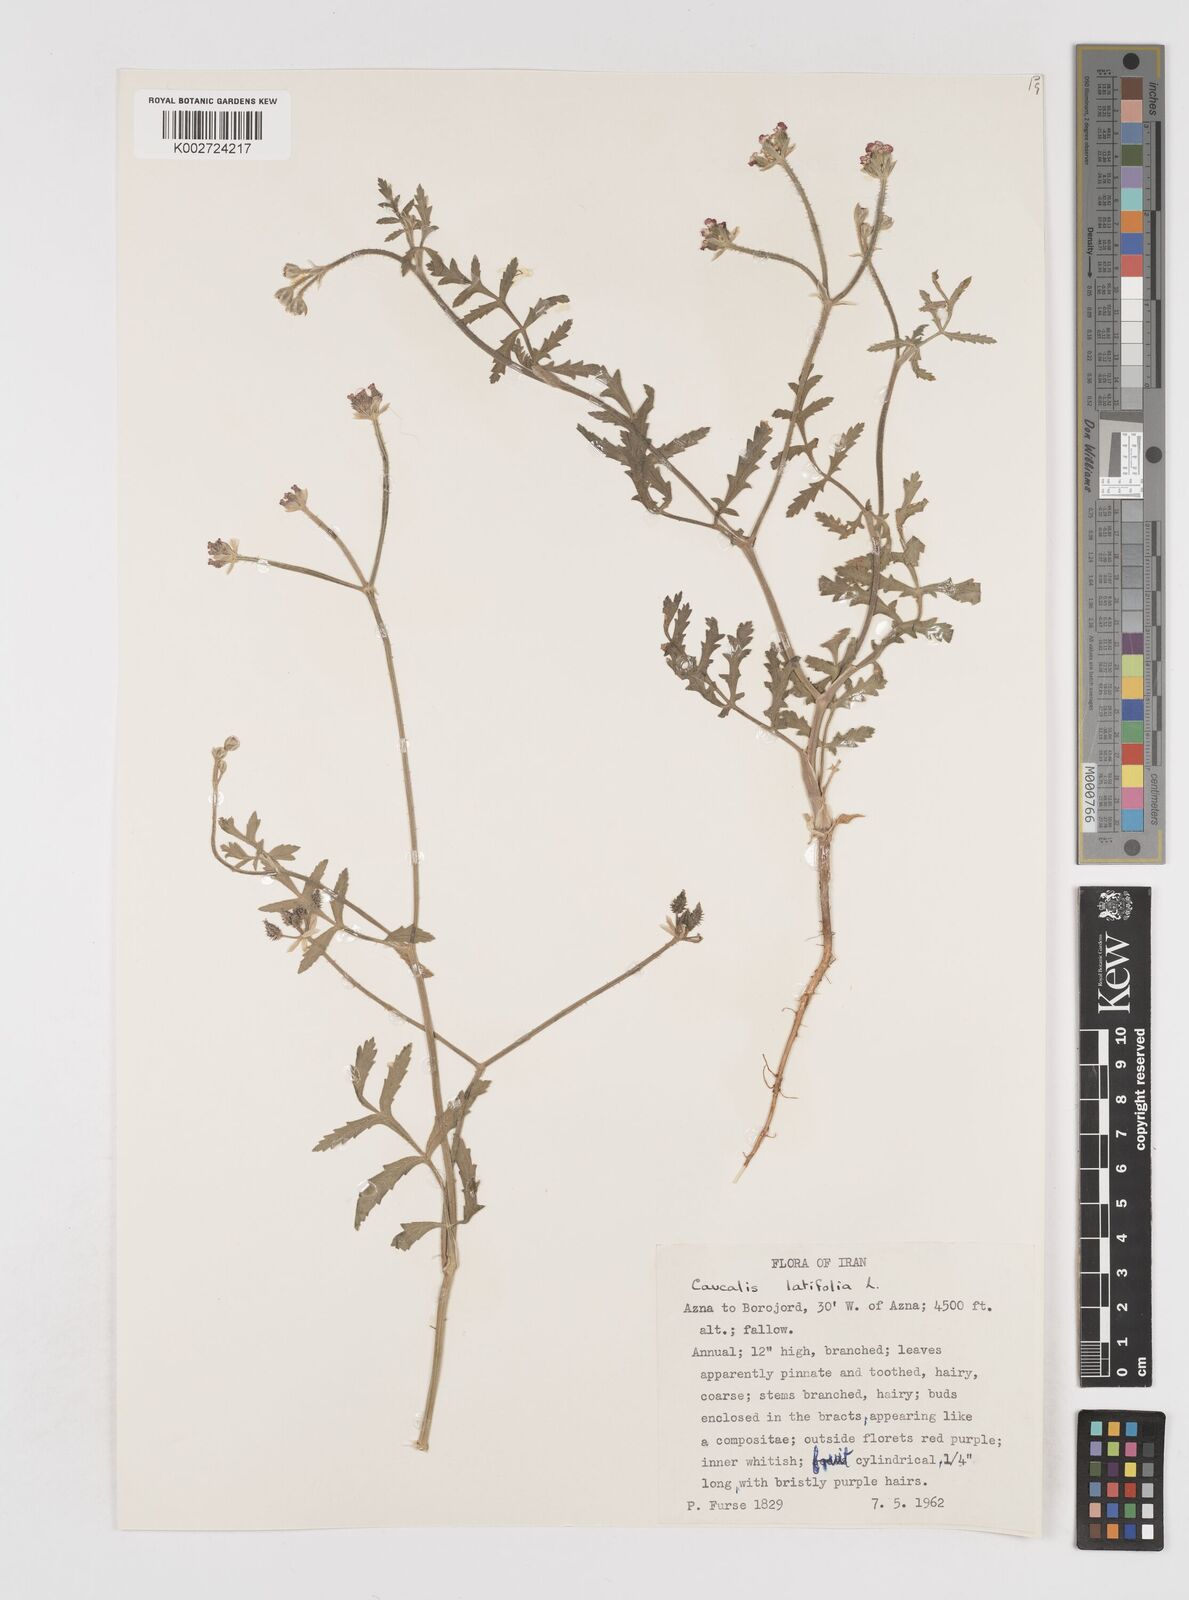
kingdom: Plantae
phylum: Tracheophyta
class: Magnoliopsida
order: Apiales
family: Apiaceae
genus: Turgenia
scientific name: Turgenia latifolia
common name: Greater bur-parsley
